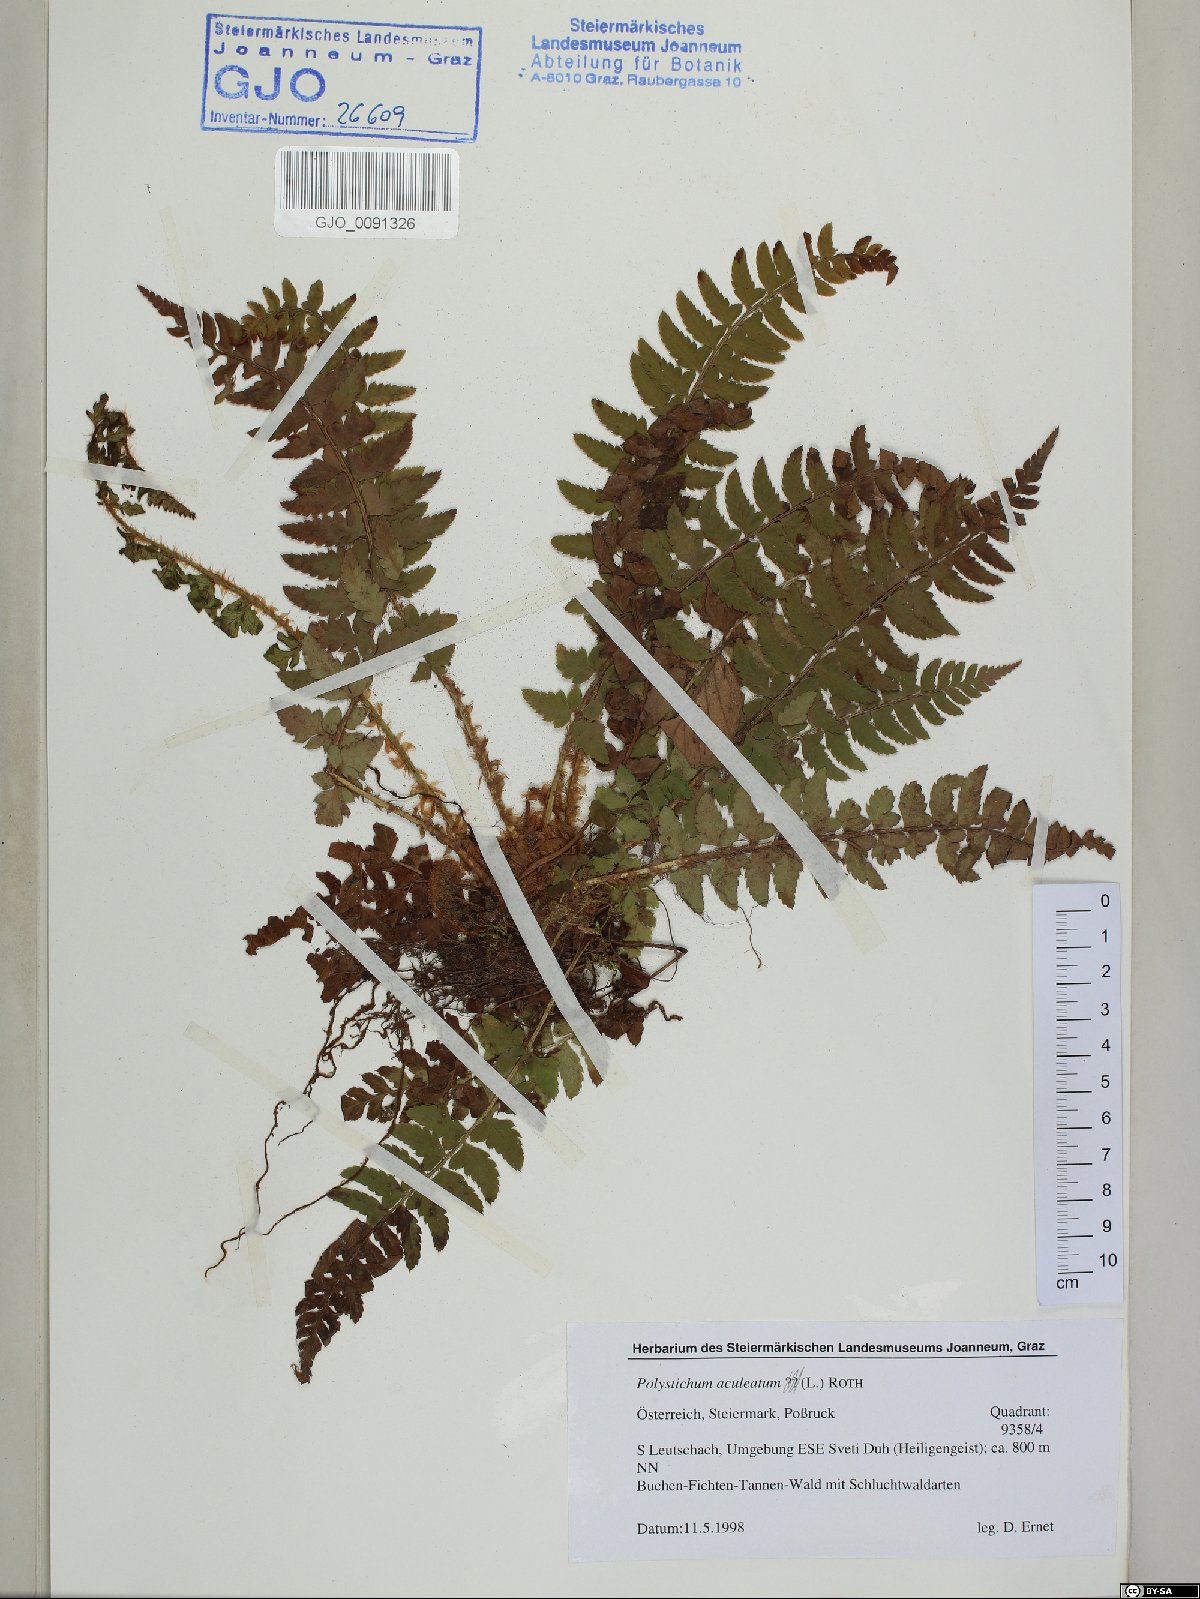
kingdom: Plantae
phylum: Tracheophyta
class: Polypodiopsida
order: Polypodiales
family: Dryopteridaceae
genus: Polystichum
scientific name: Polystichum aculeatum
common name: Hard shield-fern
